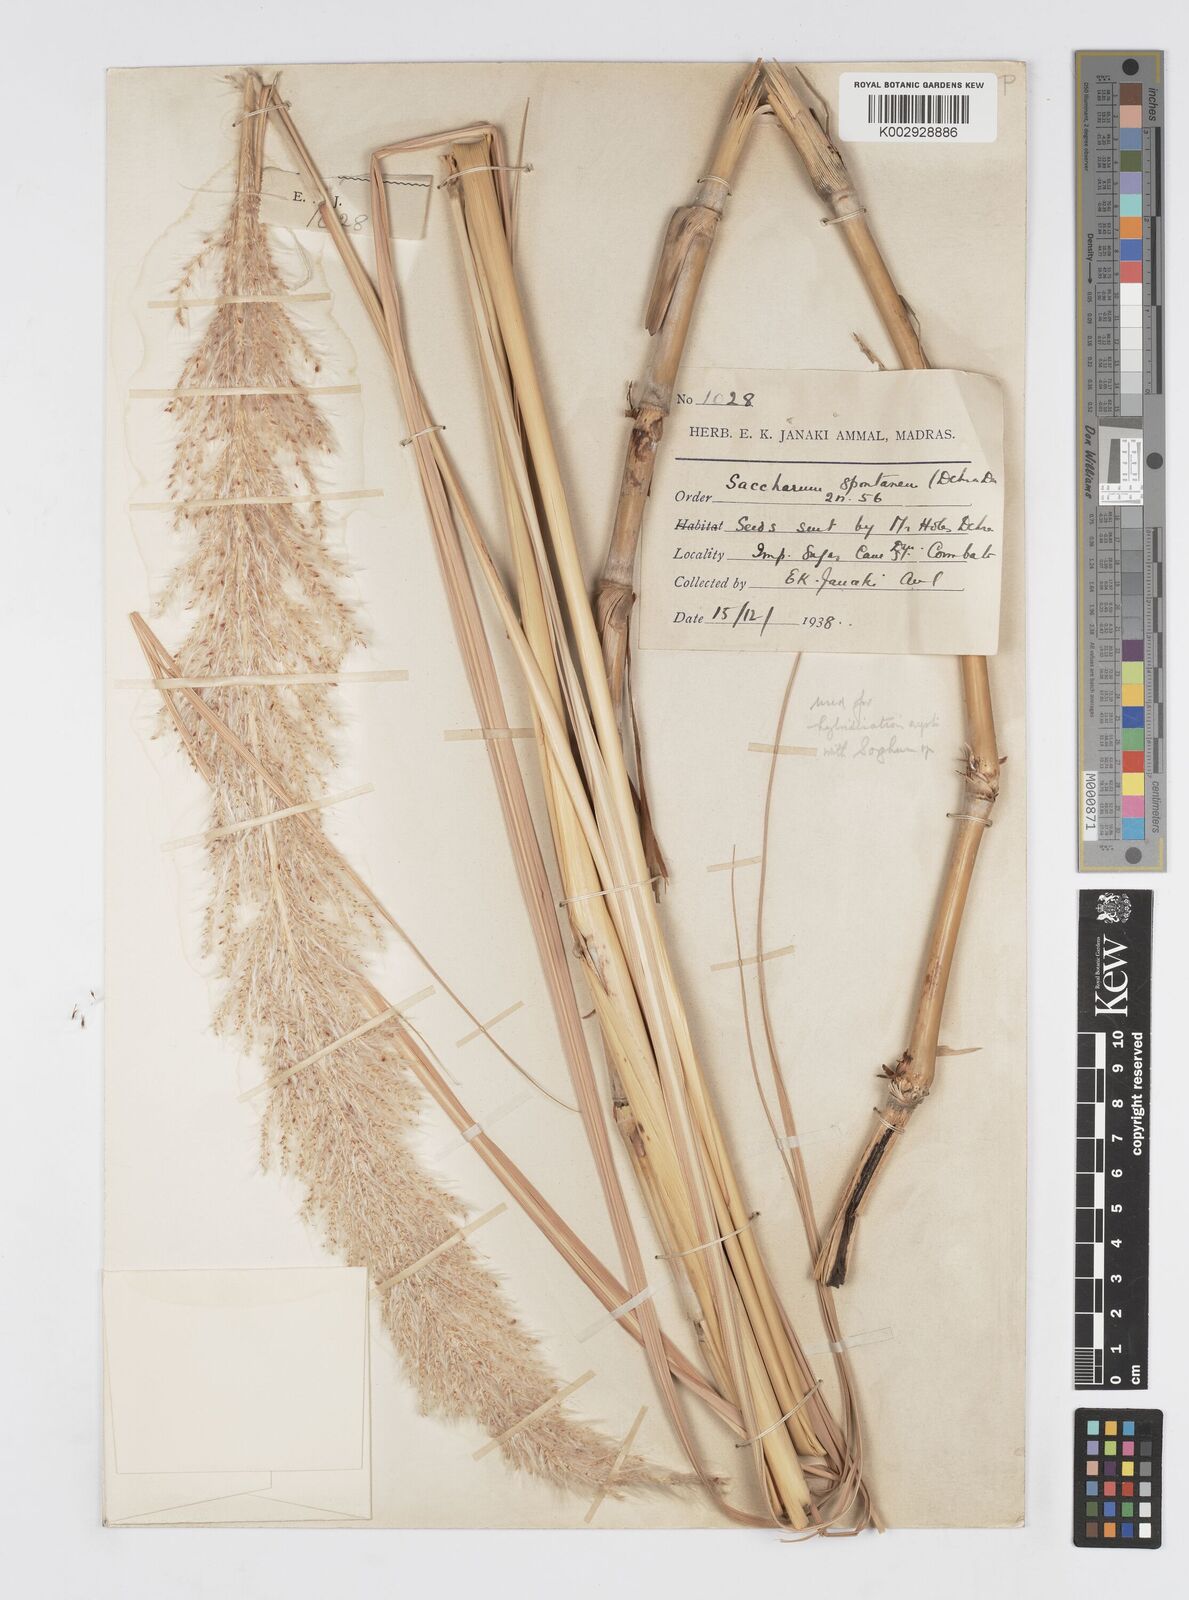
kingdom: Plantae
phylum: Tracheophyta
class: Liliopsida
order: Poales
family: Poaceae
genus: Saccharum
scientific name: Saccharum spontaneum
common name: Wild sugarcane
